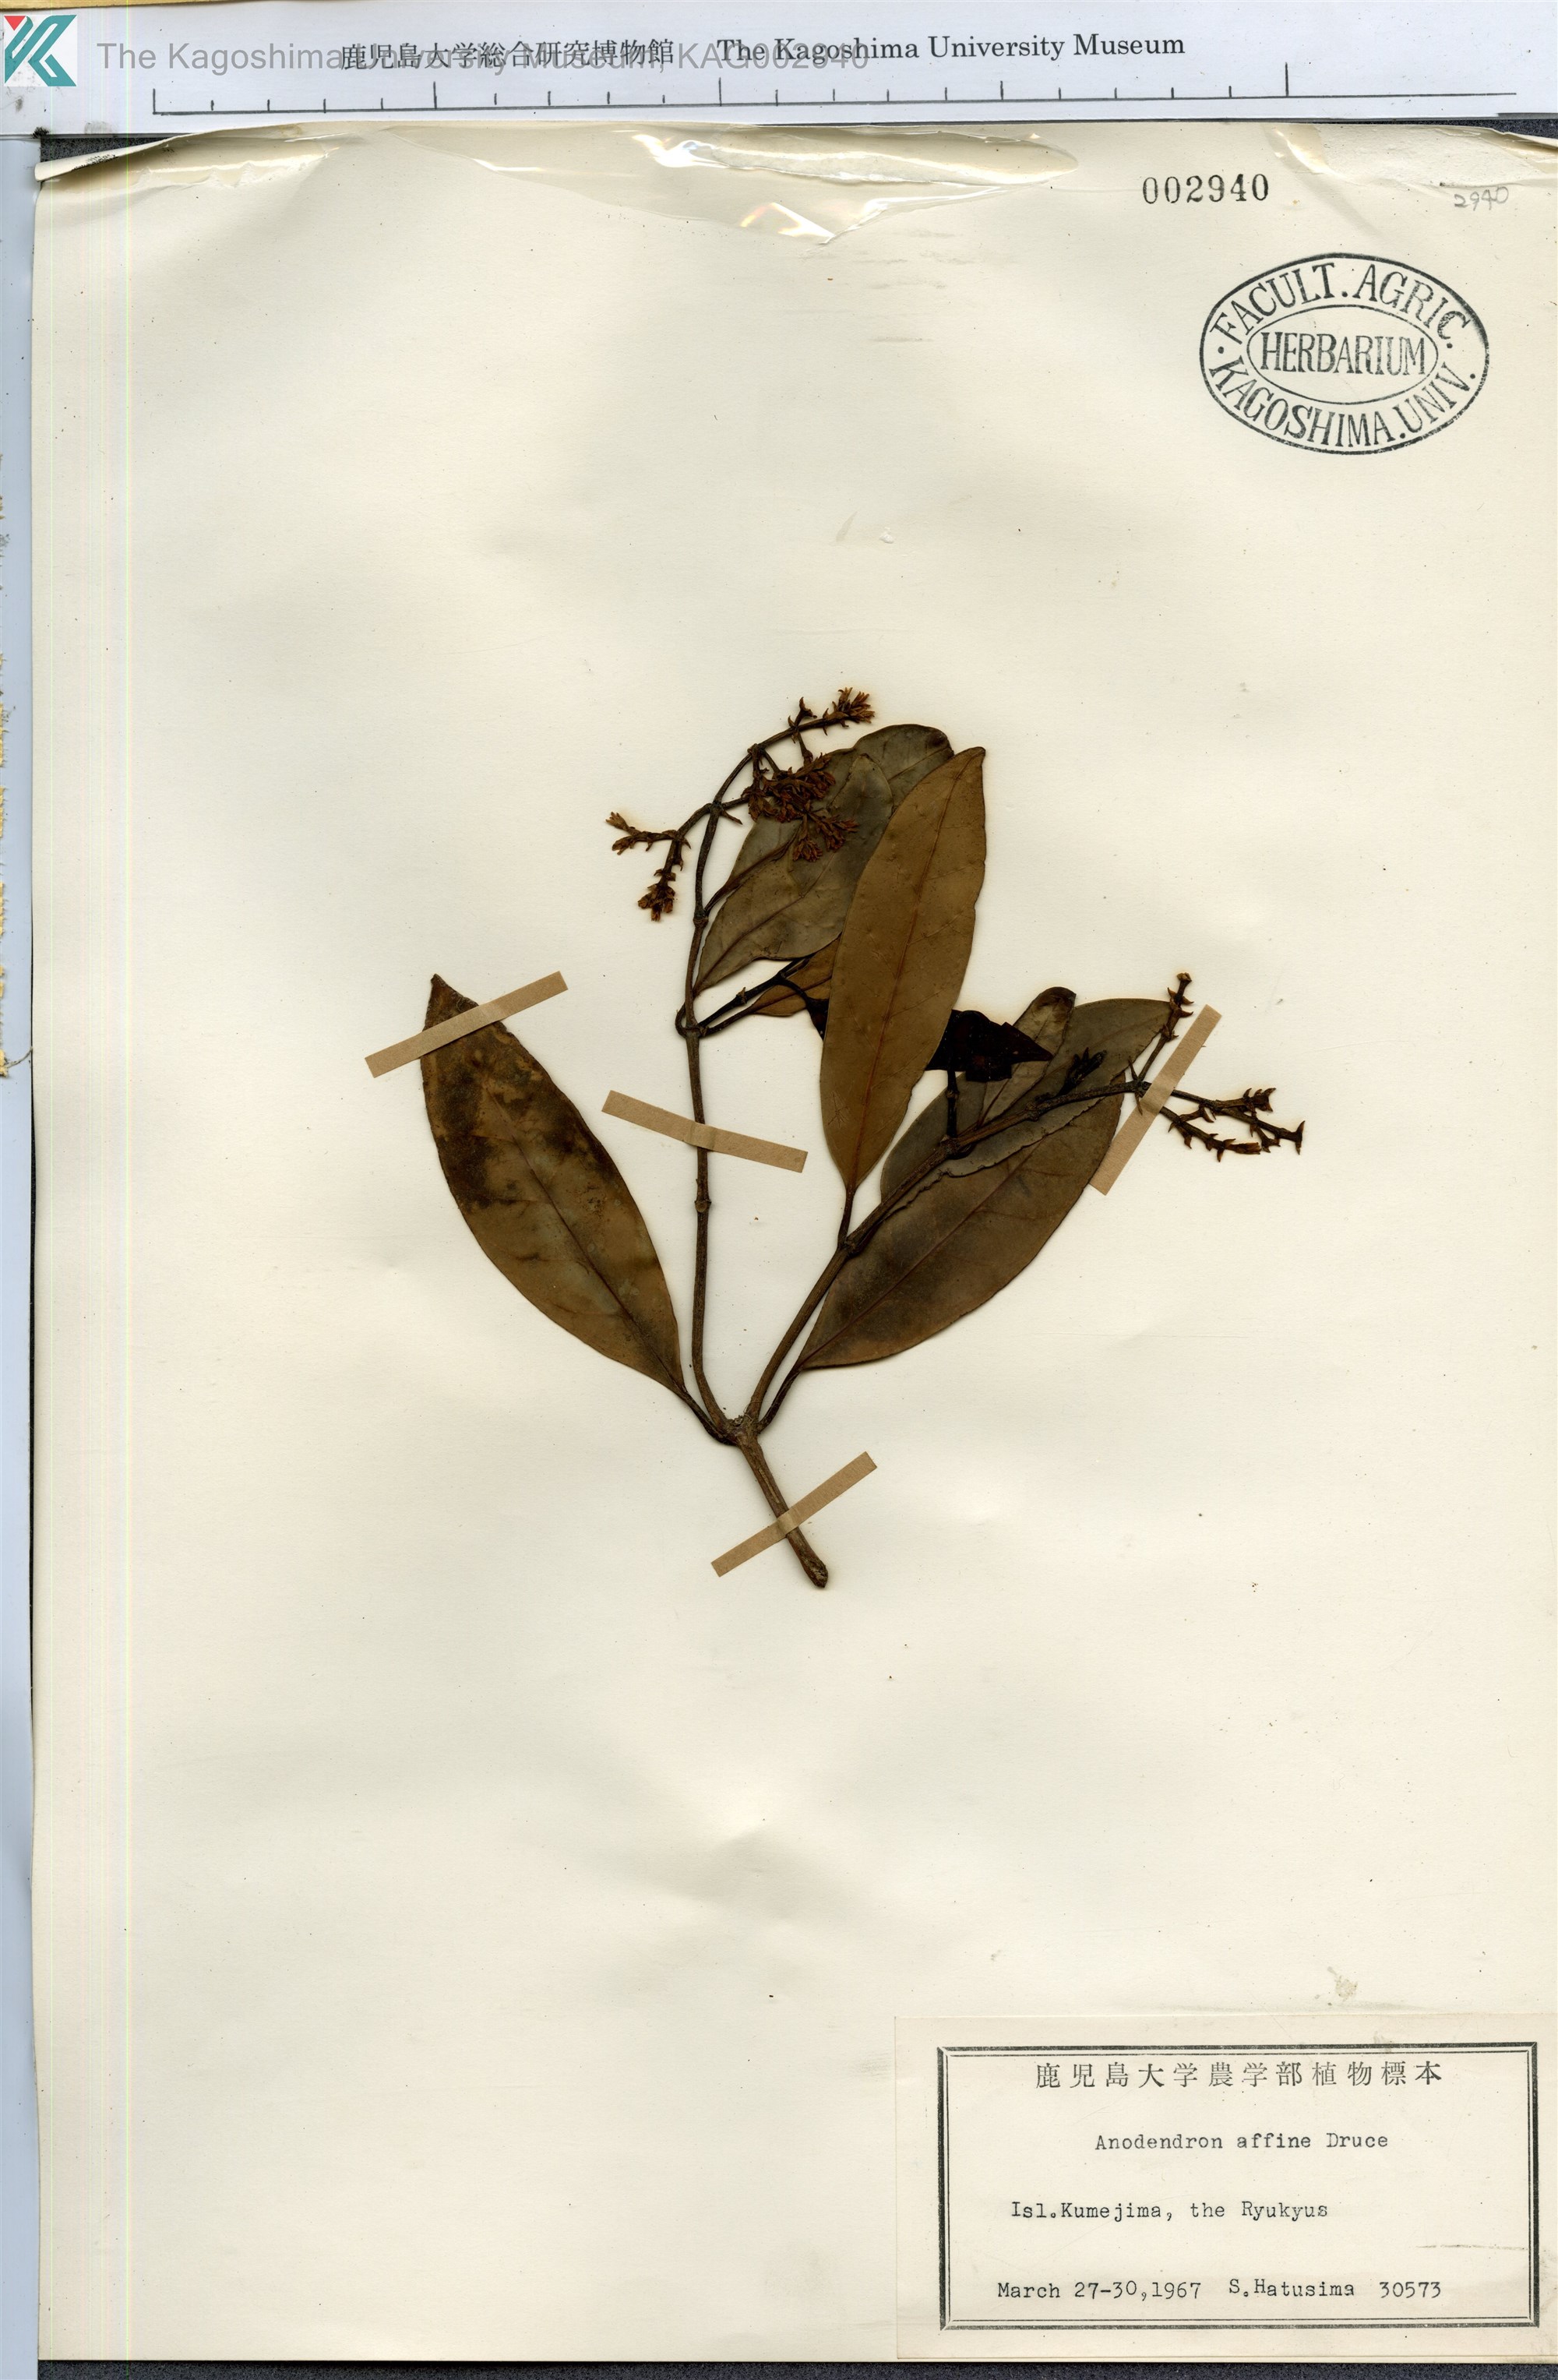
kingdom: Plantae
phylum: Tracheophyta
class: Magnoliopsida
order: Gentianales
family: Apocynaceae
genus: Anodendron
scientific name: Anodendron affine
